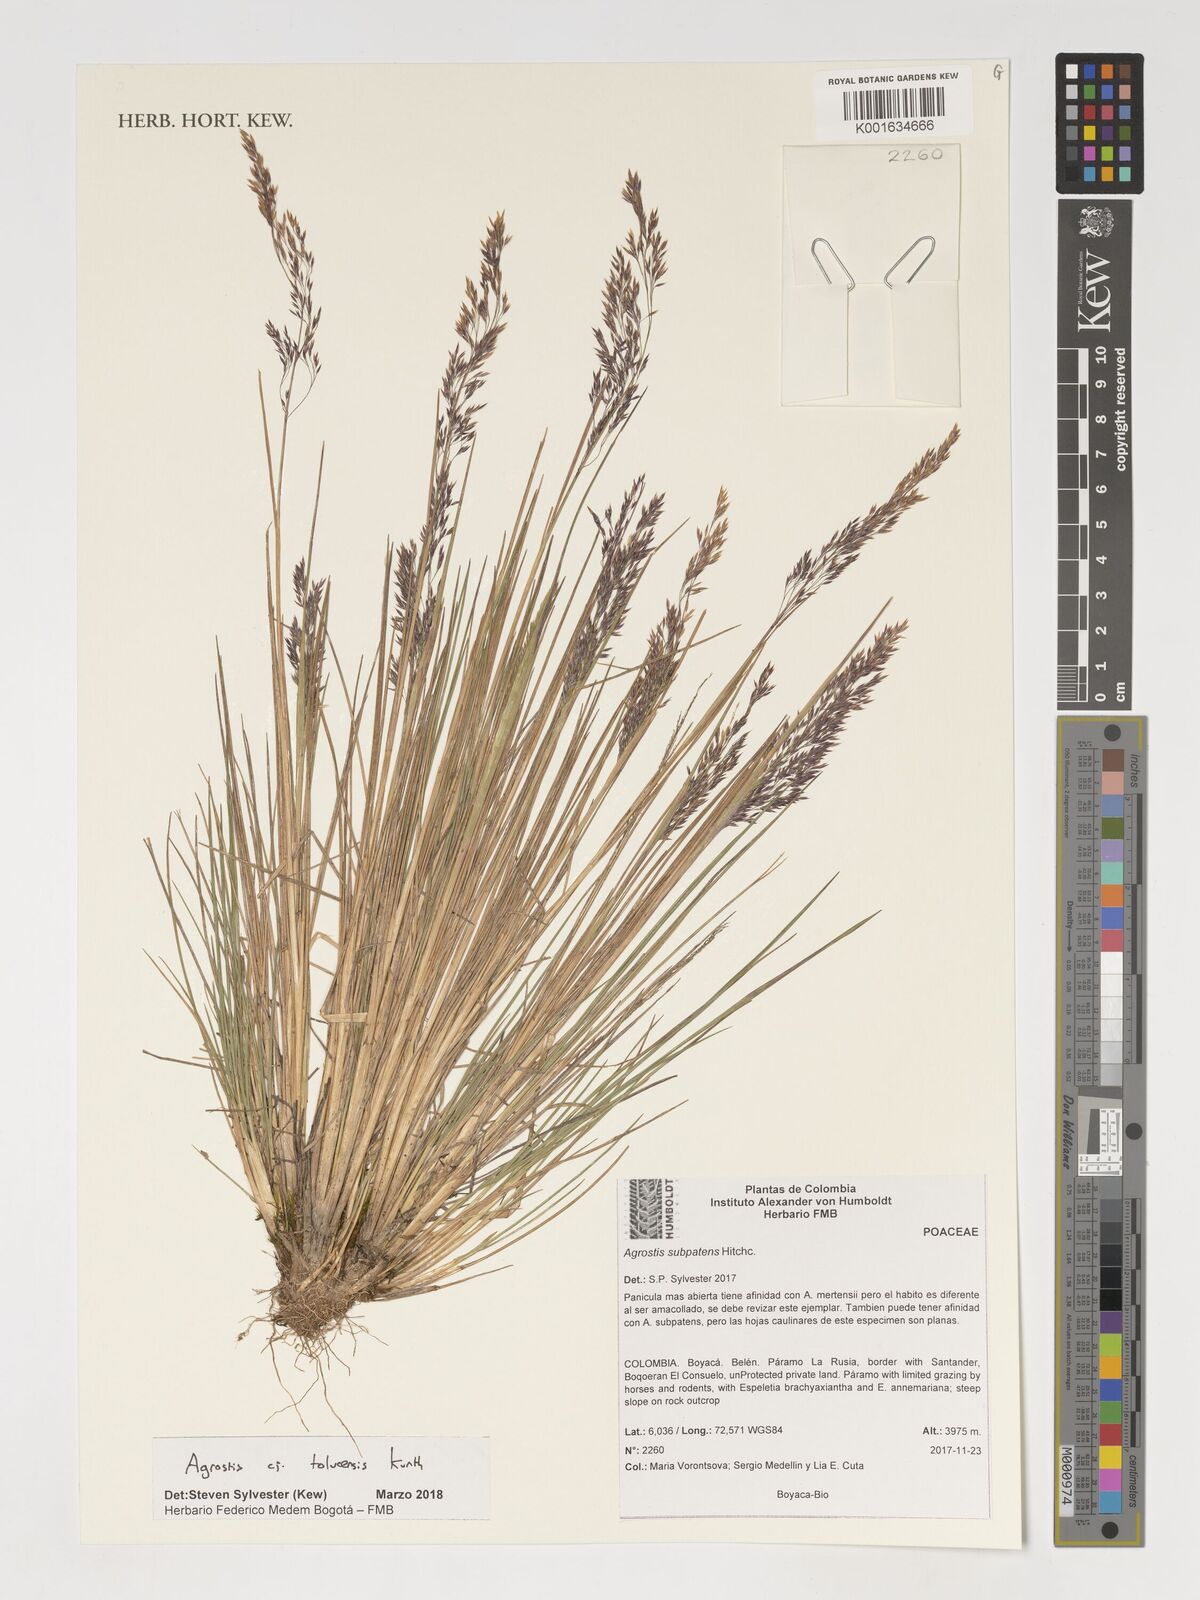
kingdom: Plantae
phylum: Tracheophyta
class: Liliopsida
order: Poales
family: Poaceae
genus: Agrostis
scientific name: Agrostis tolucensis
